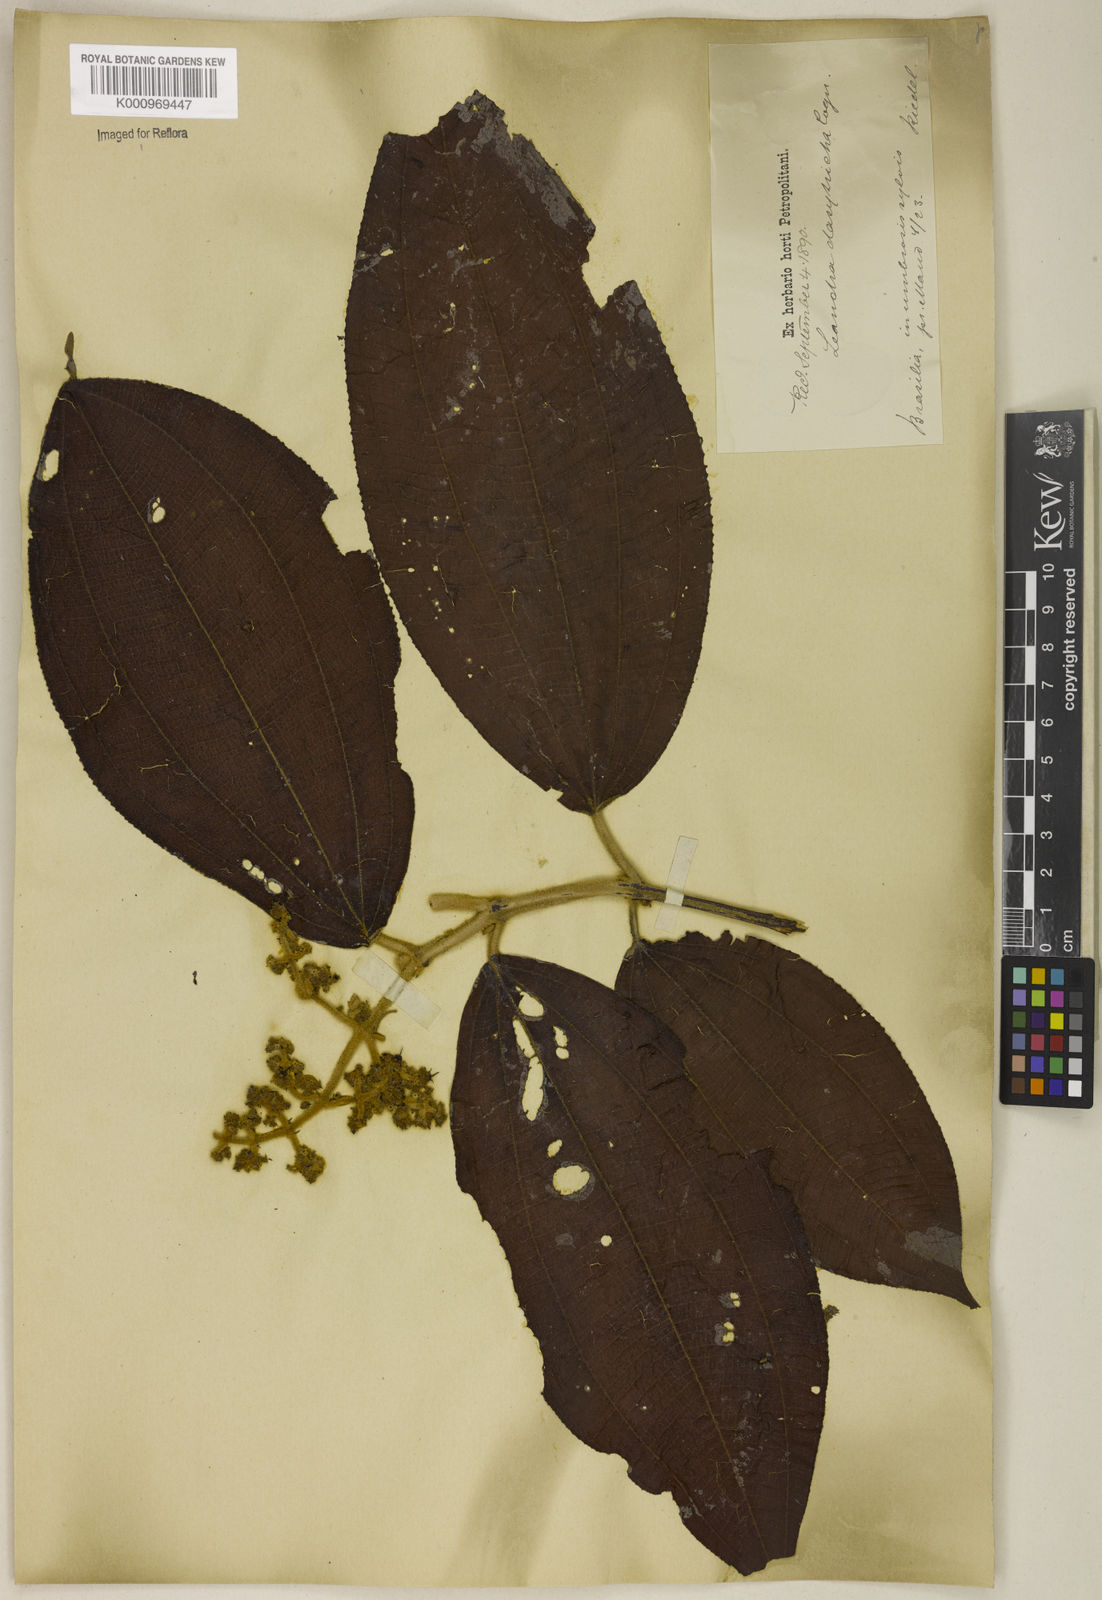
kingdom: Plantae
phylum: Tracheophyta
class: Magnoliopsida
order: Myrtales
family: Melastomataceae
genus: Miconia
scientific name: Miconia dasytricha
